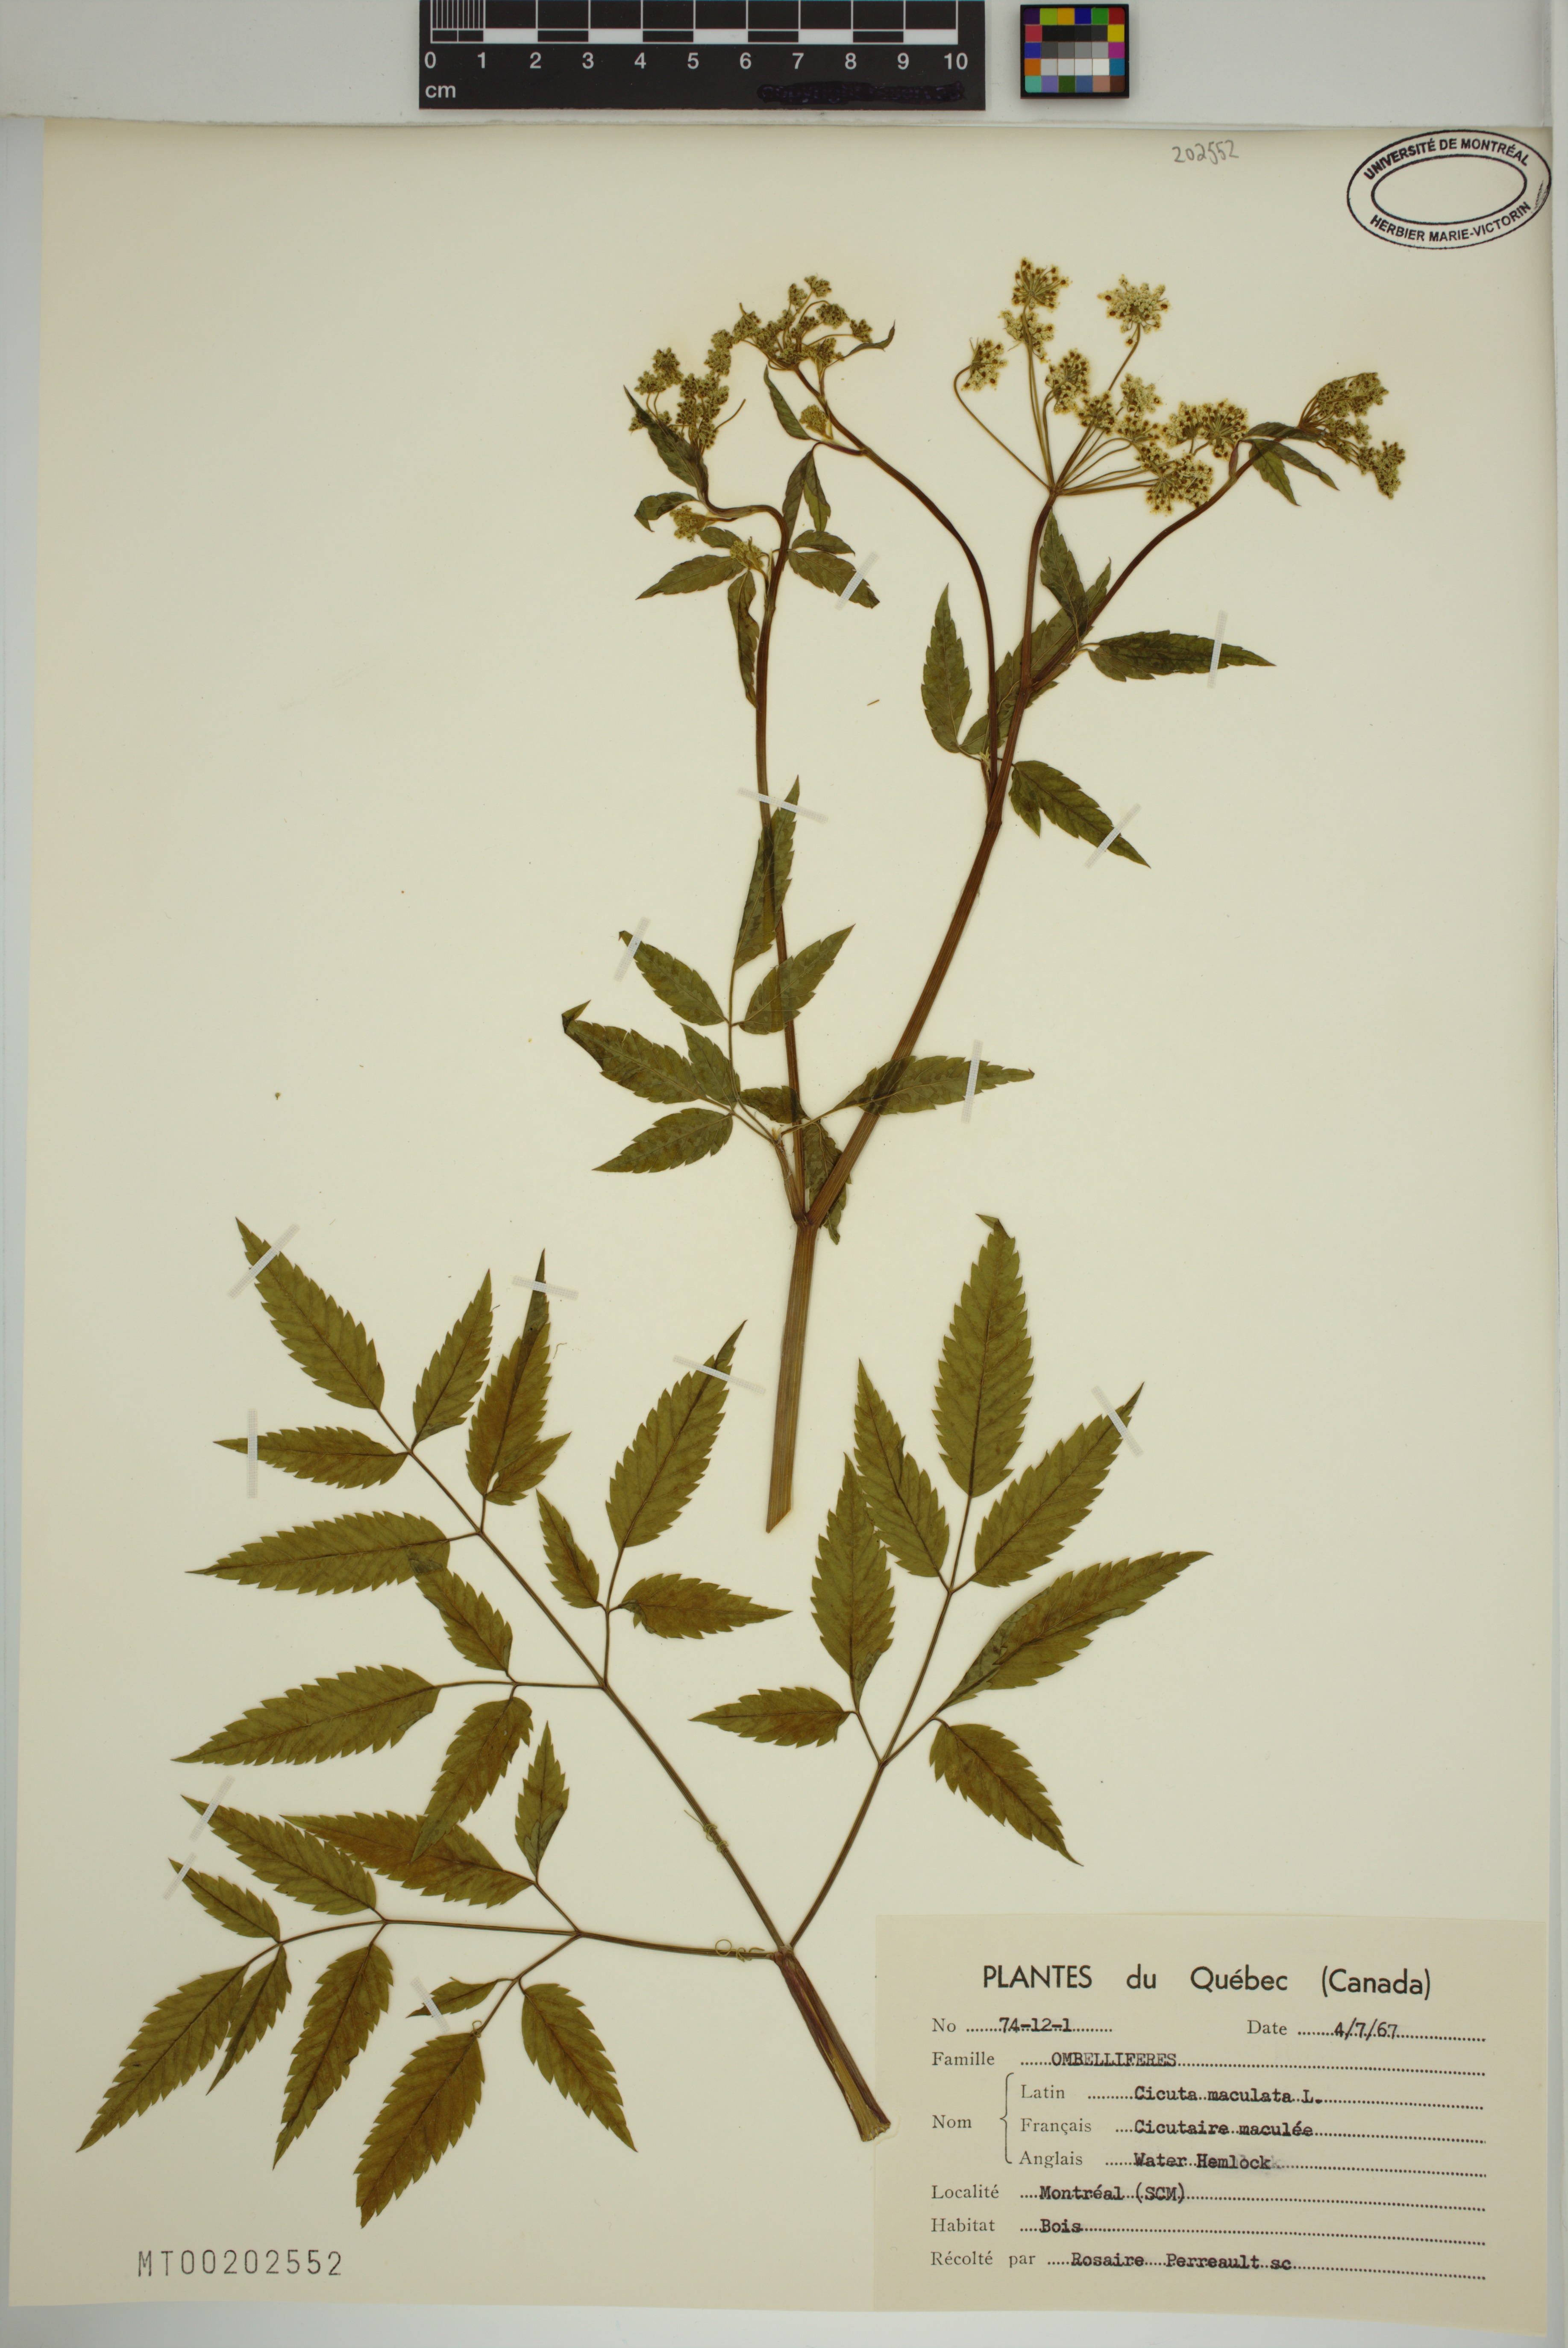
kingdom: Plantae
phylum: Tracheophyta
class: Magnoliopsida
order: Apiales
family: Apiaceae
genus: Cicuta
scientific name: Cicuta maculata
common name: Spotted cowbane
